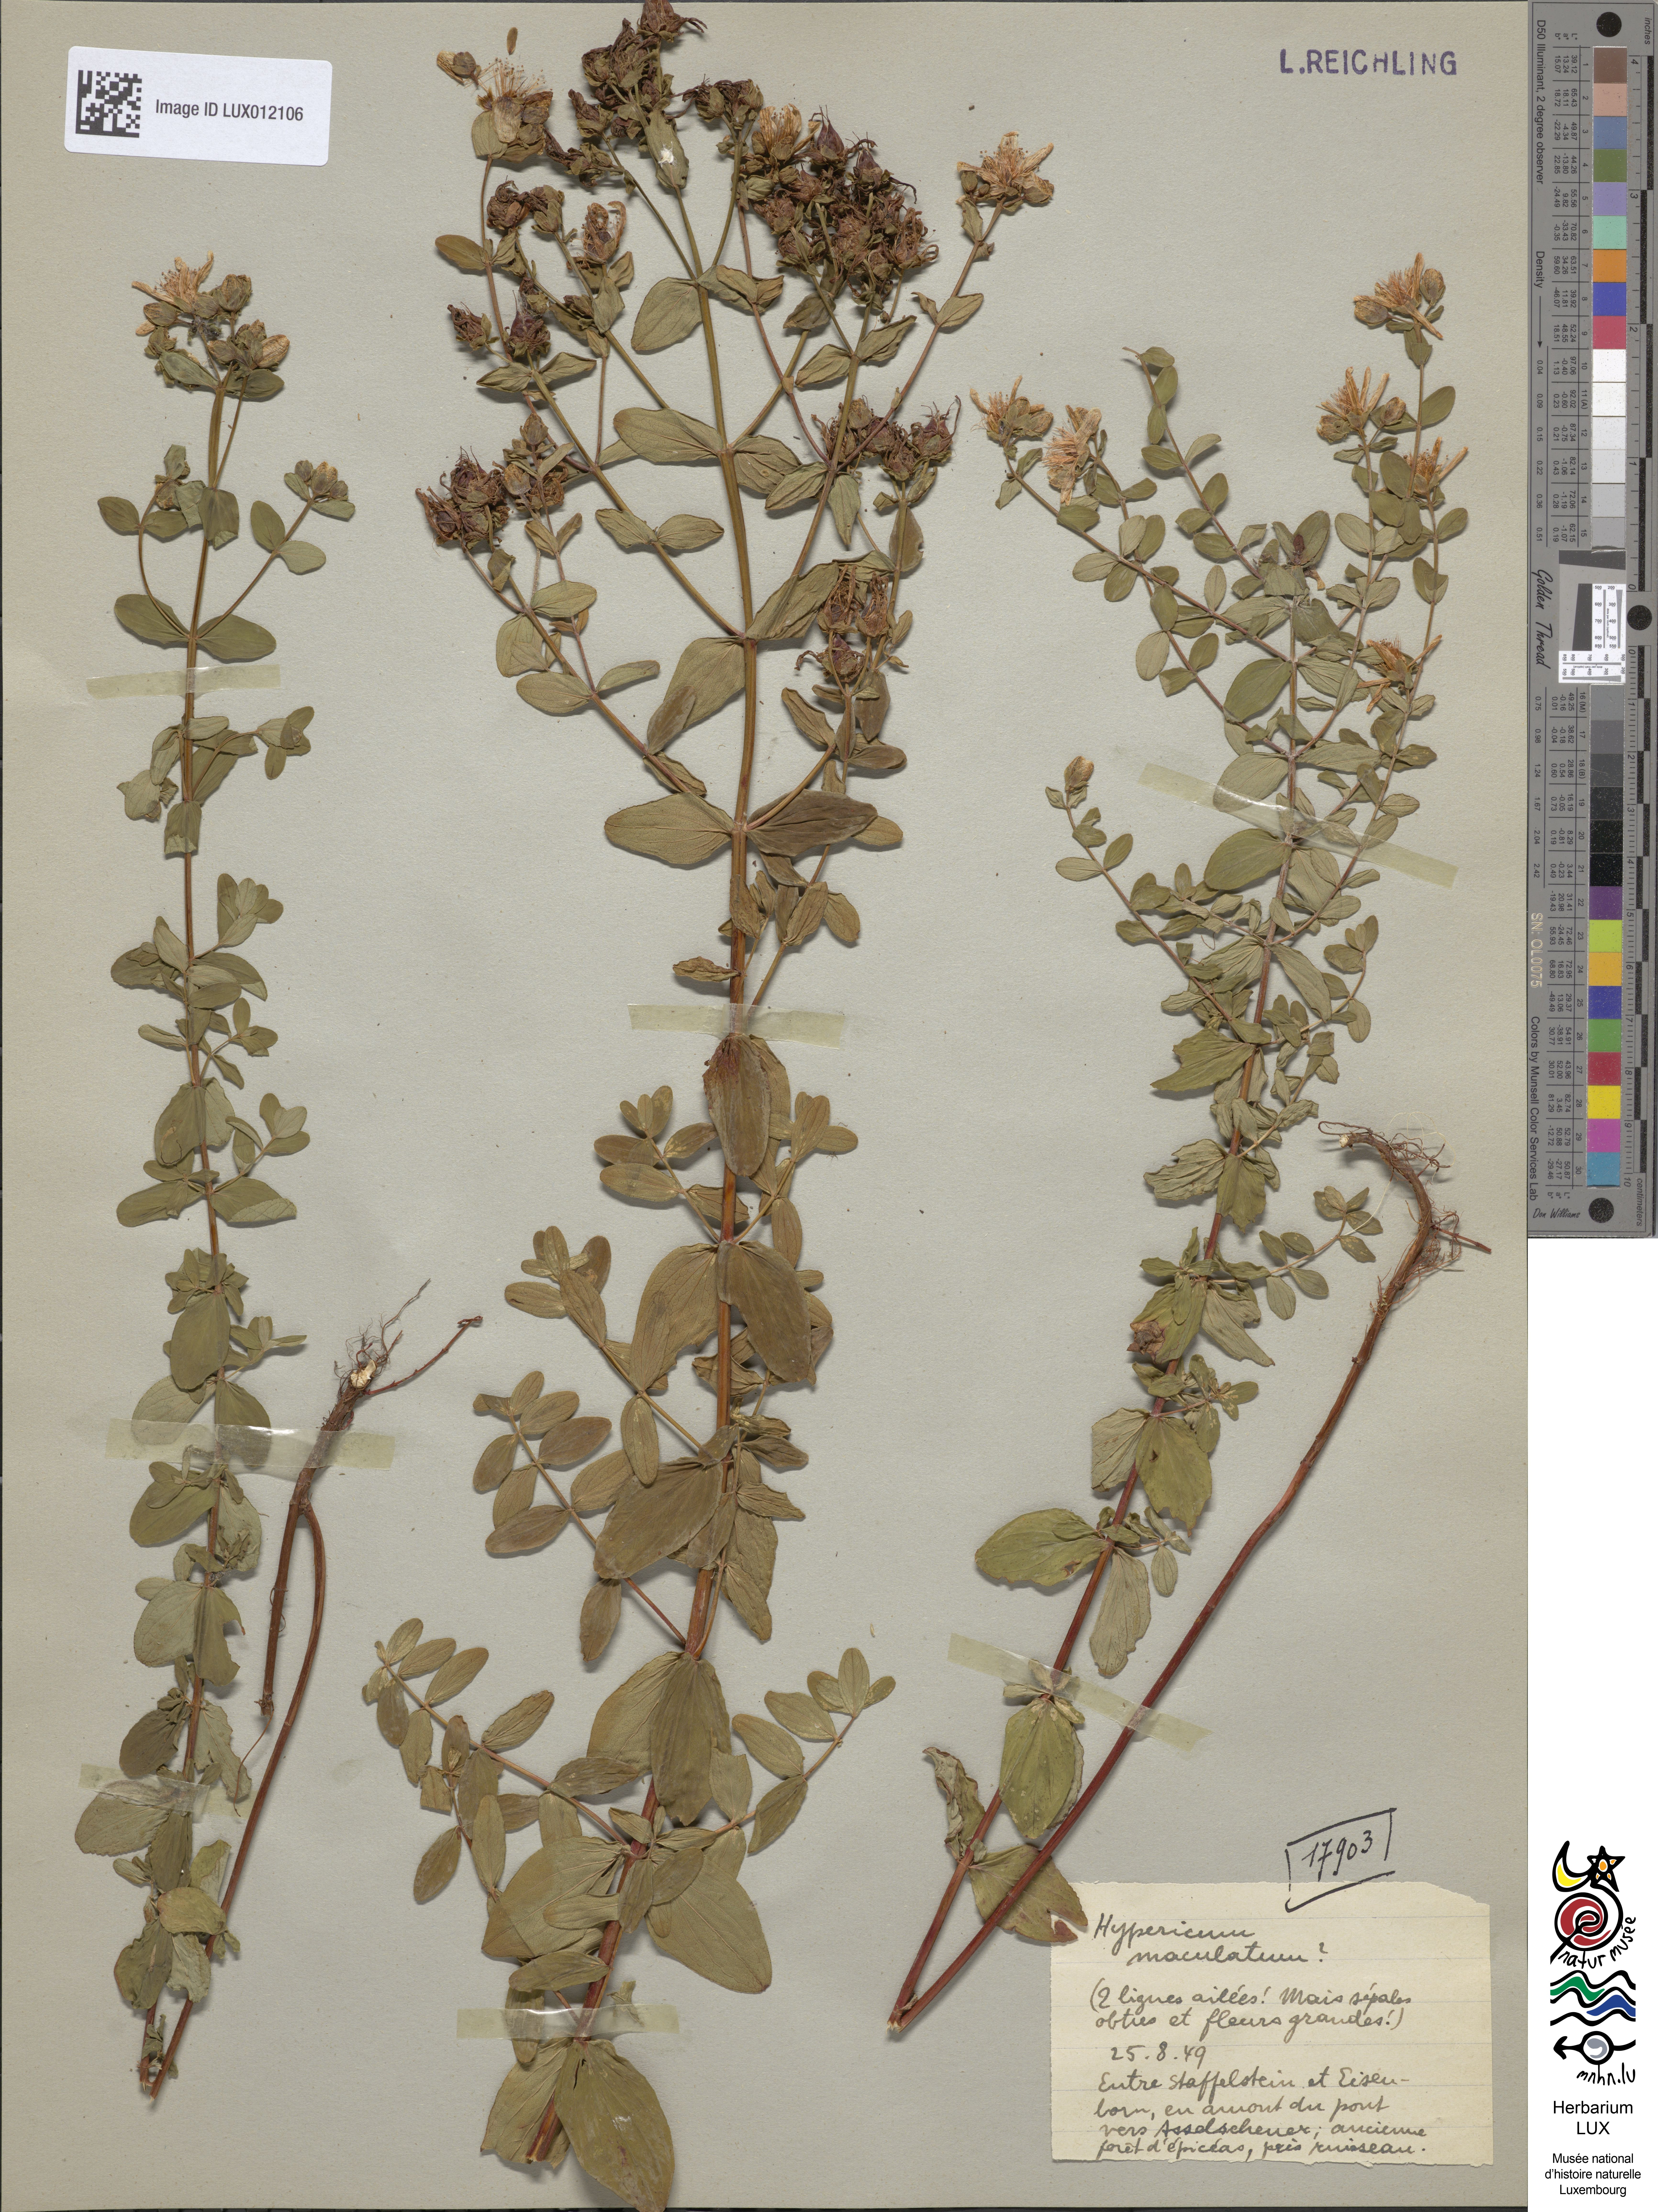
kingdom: Plantae
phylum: Tracheophyta
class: Magnoliopsida
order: Malpighiales
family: Hypericaceae
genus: Hypericum
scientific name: Hypericum maculatum
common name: Imperforate st. john's-wort
